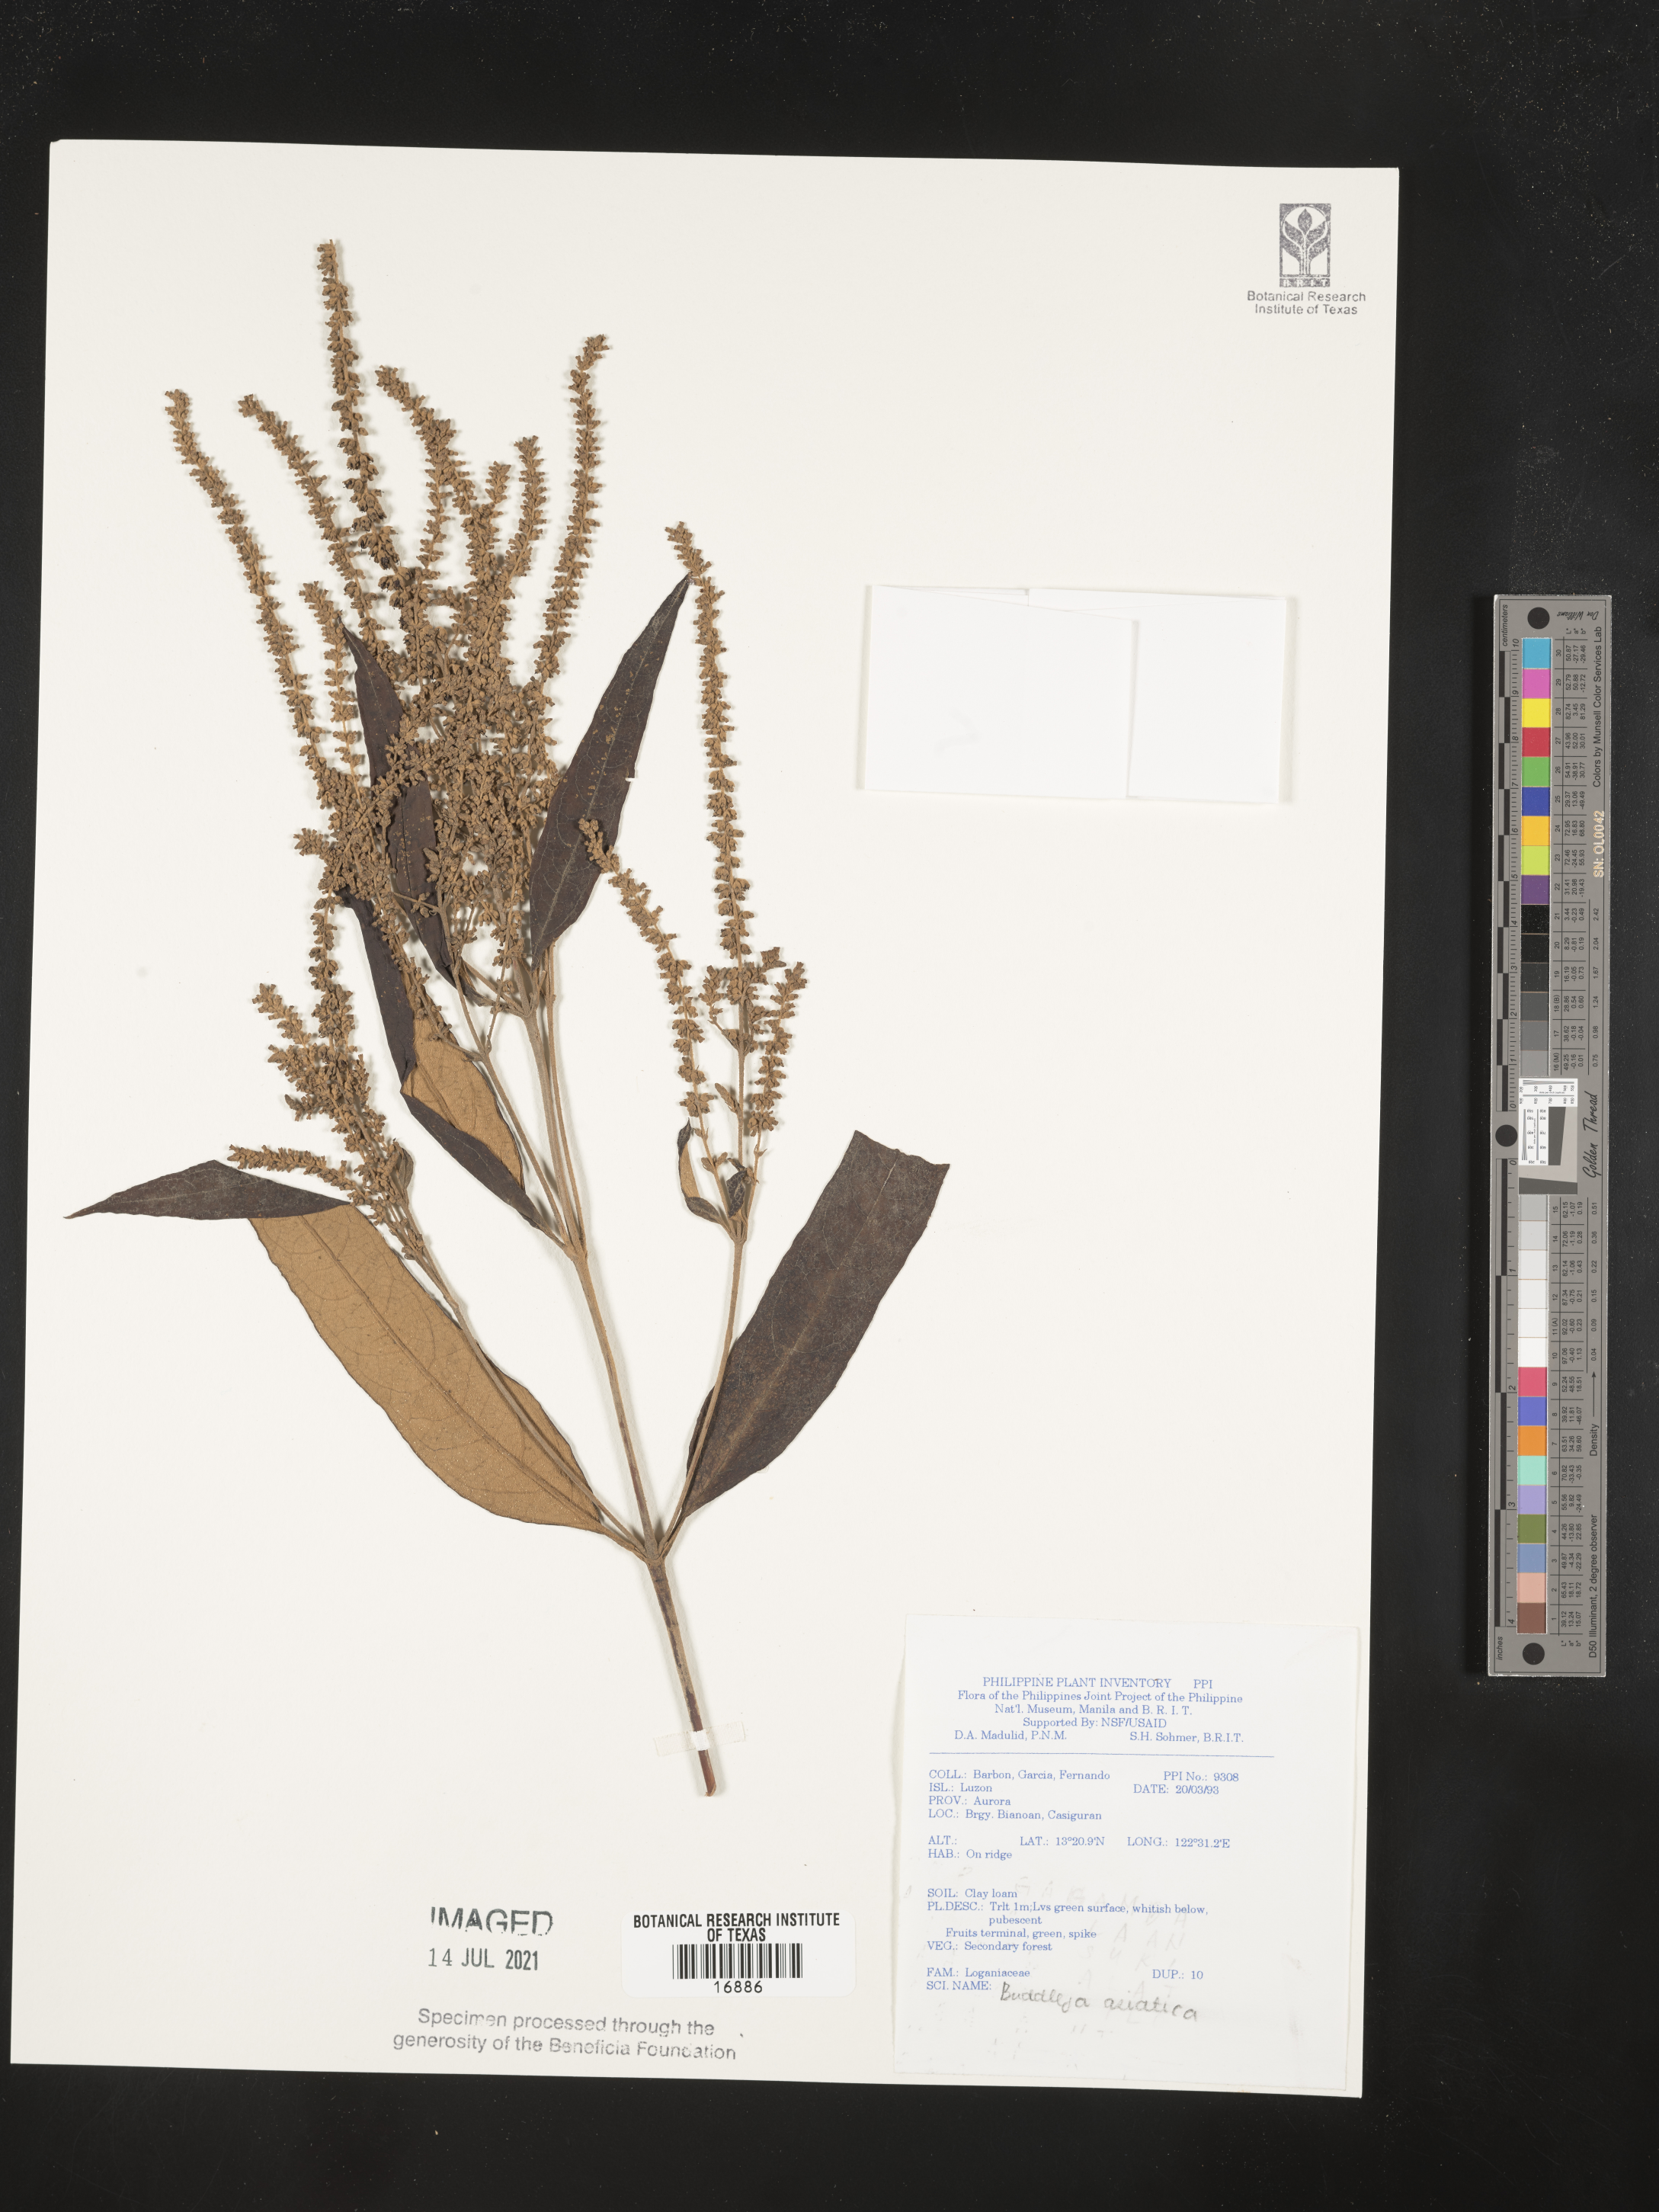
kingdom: Plantae
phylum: Tracheophyta
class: Magnoliopsida
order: Lamiales
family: Scrophulariaceae
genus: Buddleja
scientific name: Buddleja asiatica
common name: Dog tail
